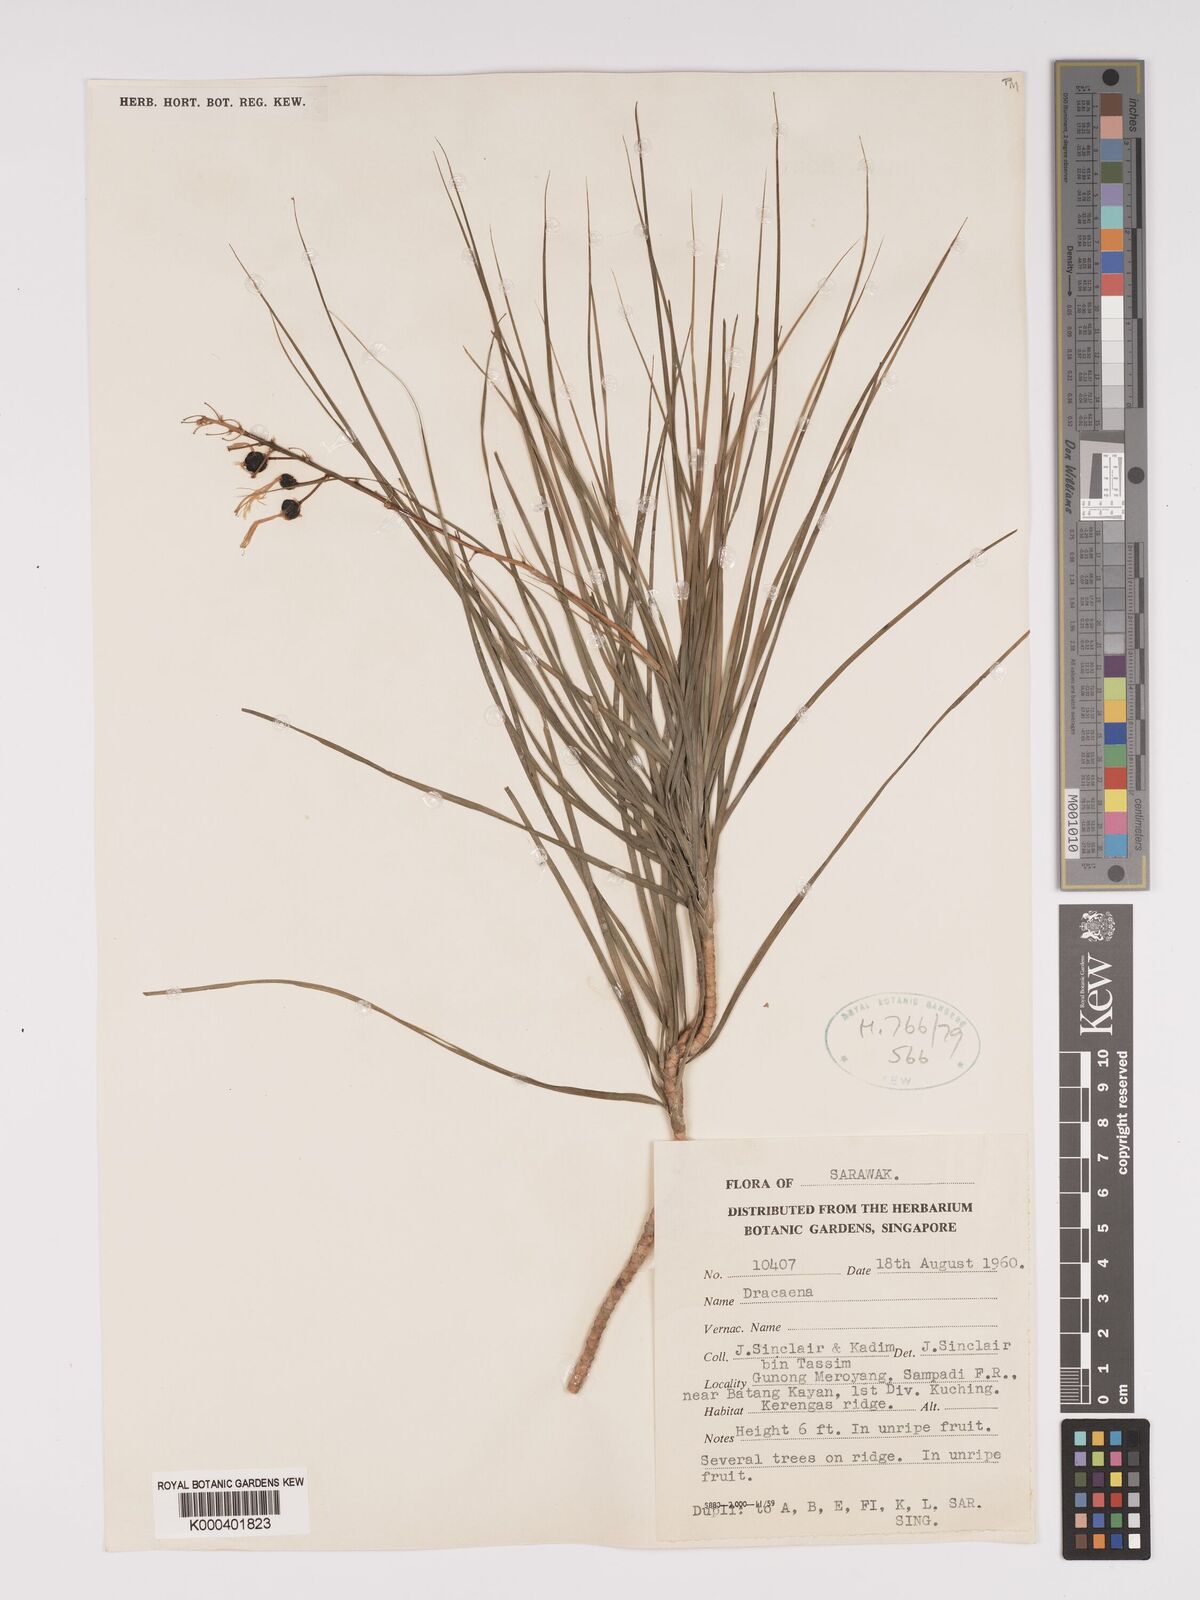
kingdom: Plantae
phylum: Tracheophyta
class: Liliopsida
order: Asparagales
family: Asparagaceae
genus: Dracaena
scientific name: Dracaena
